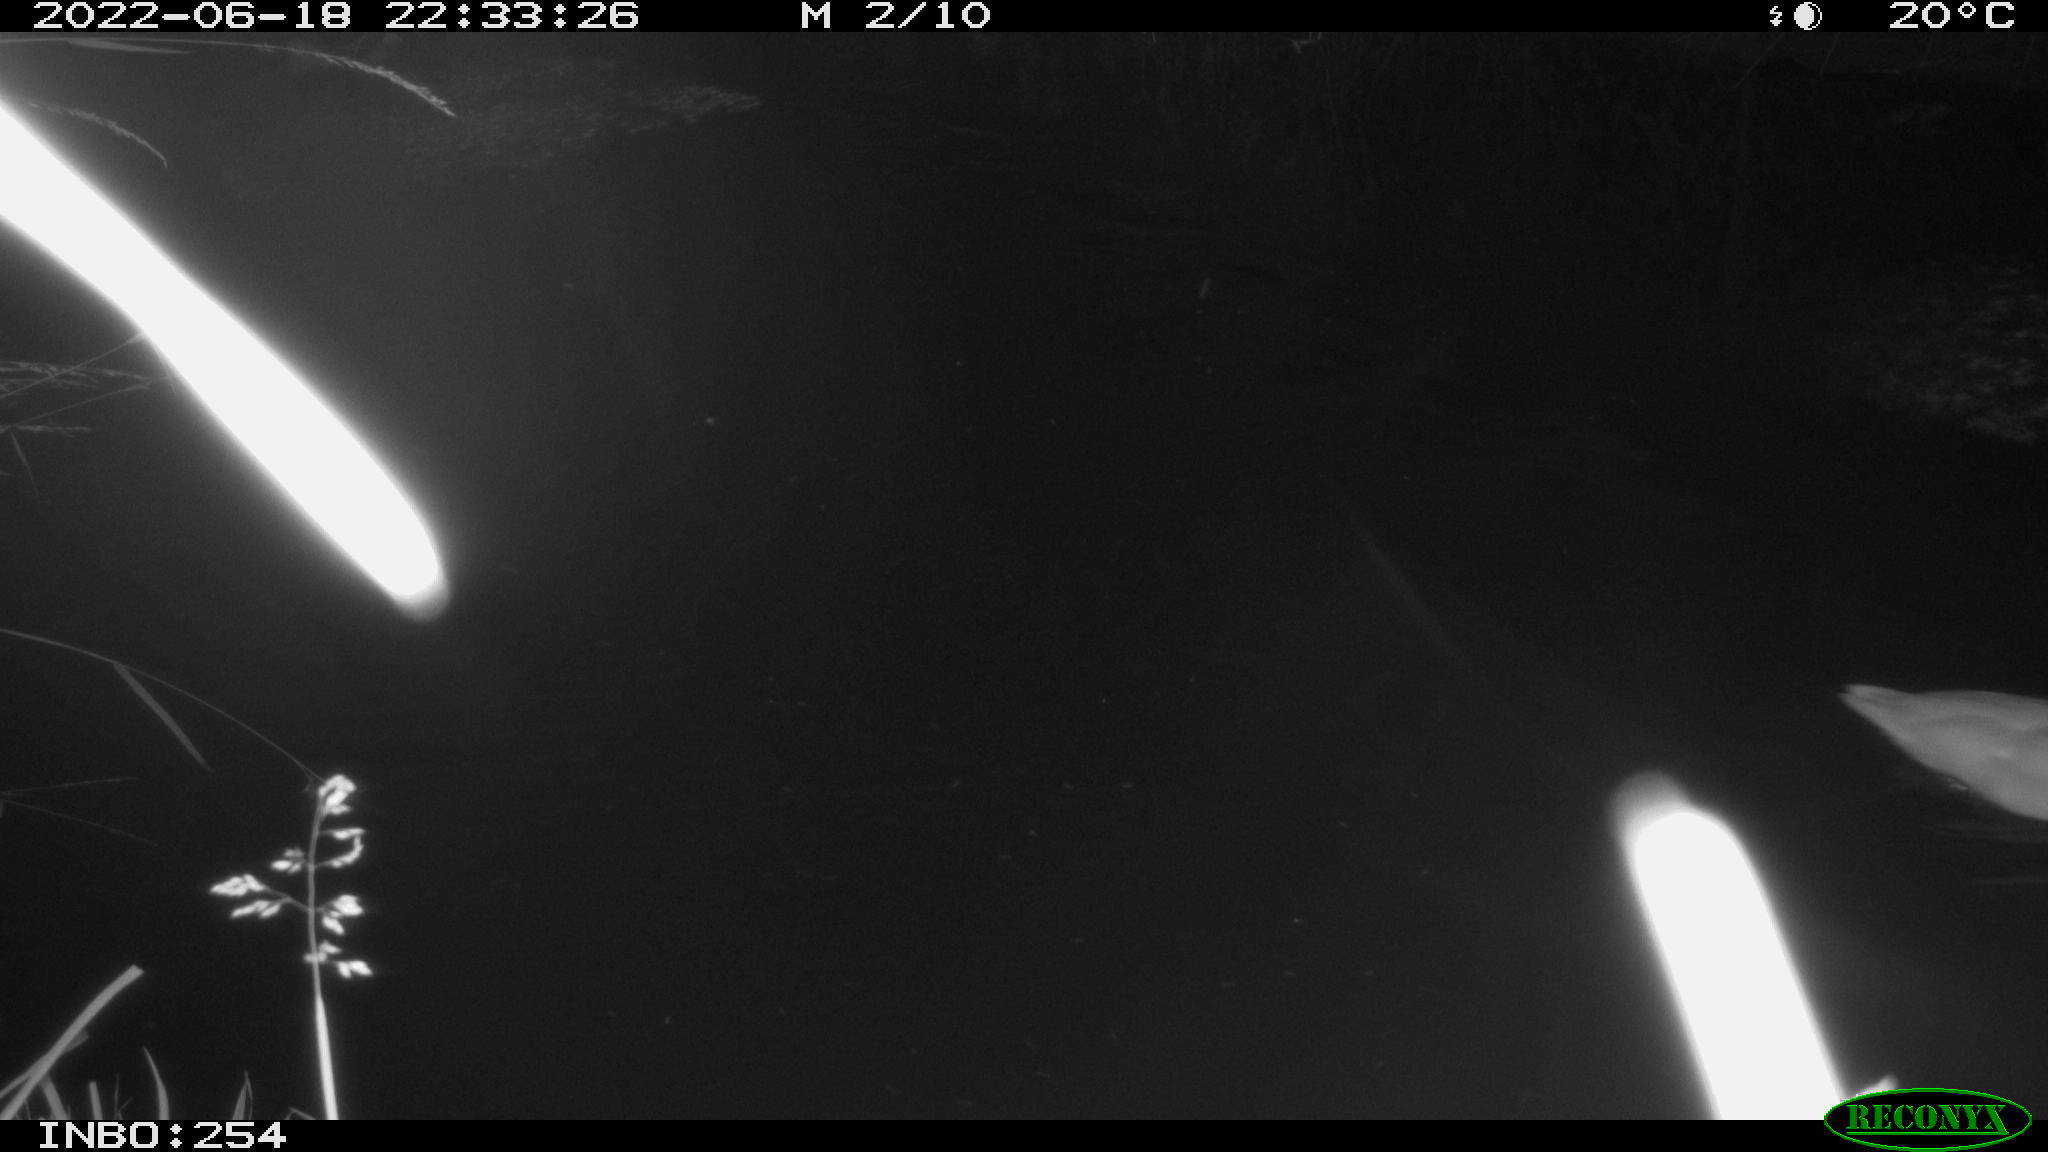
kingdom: Animalia
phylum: Chordata
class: Aves
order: Anseriformes
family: Anatidae
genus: Anas
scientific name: Anas platyrhynchos
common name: Mallard
